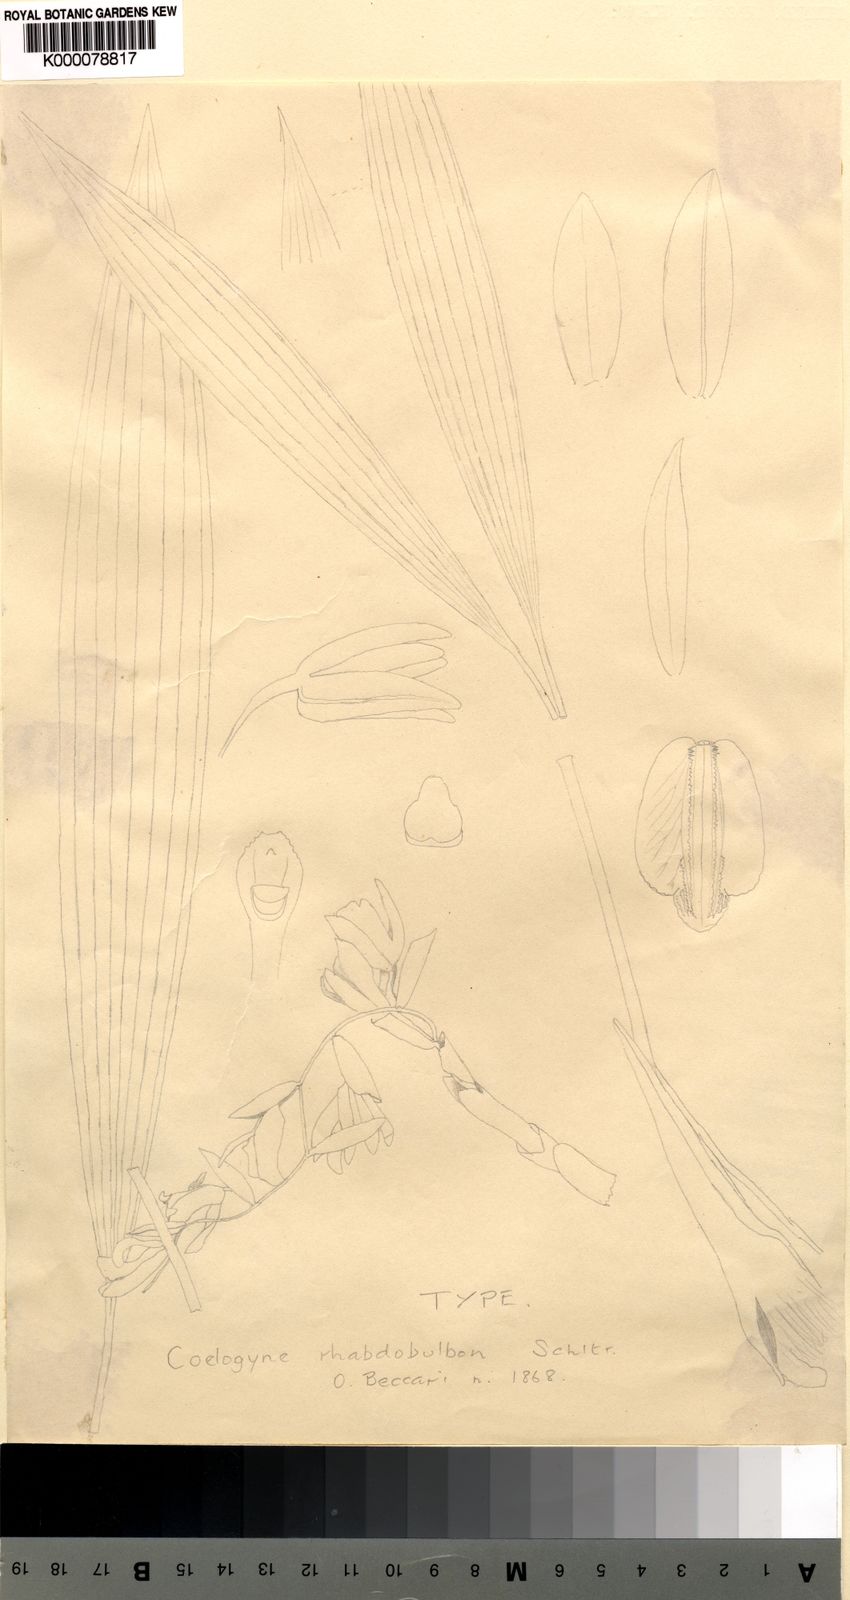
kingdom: Plantae
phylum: Tracheophyta
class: Liliopsida
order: Asparagales
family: Orchidaceae
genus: Coelogyne
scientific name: Coelogyne rhabdobulbon
